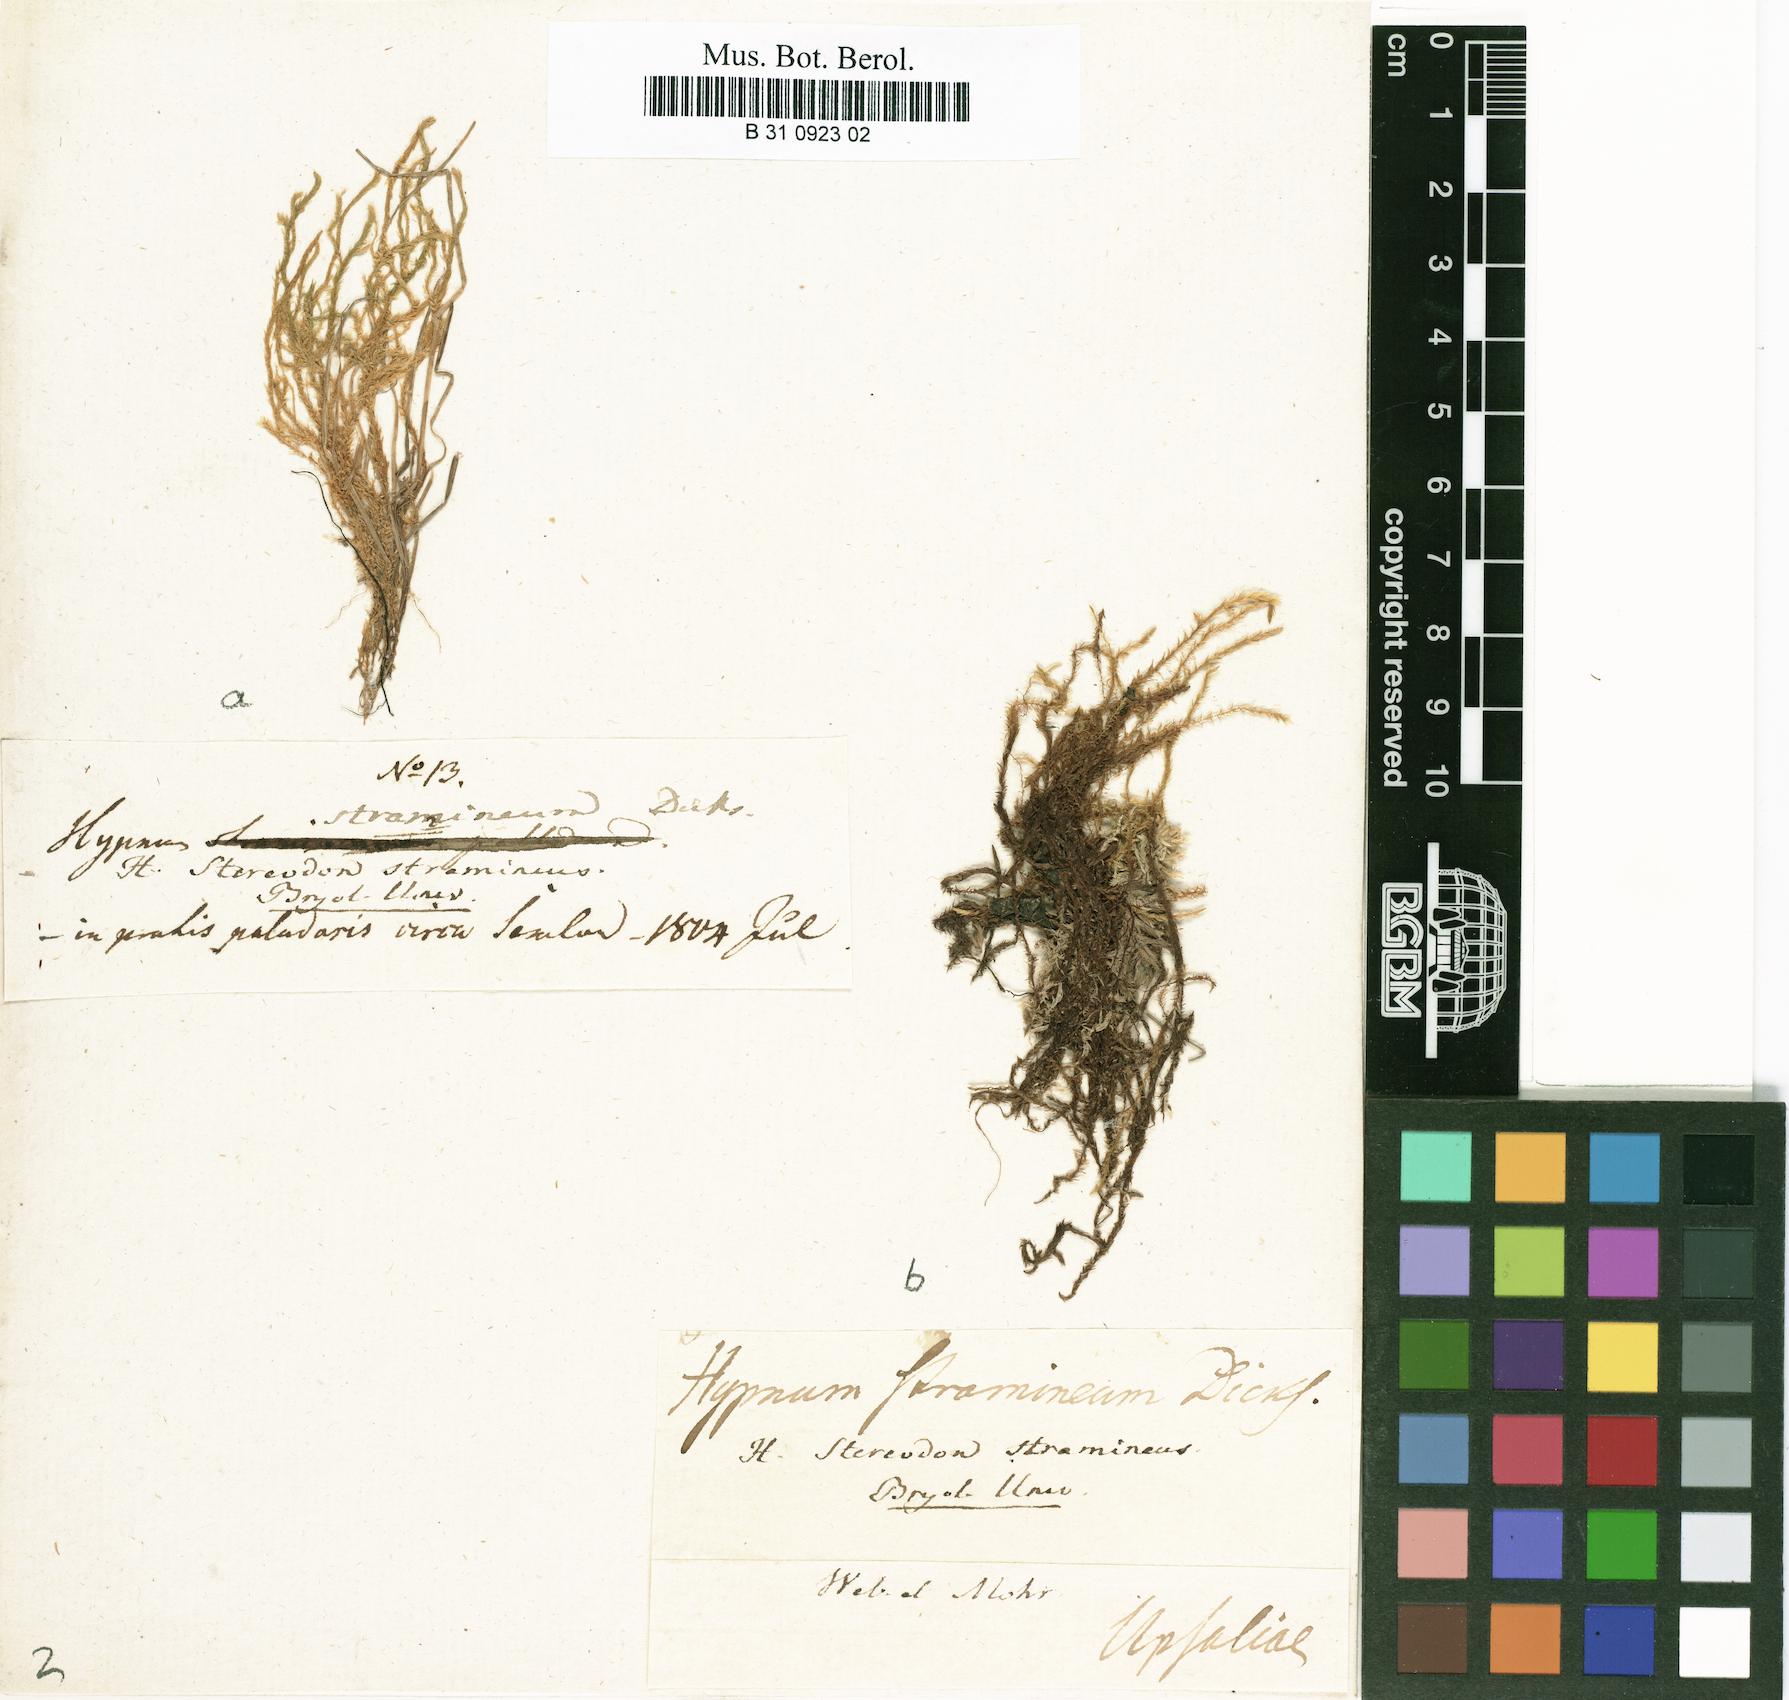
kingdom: Plantae
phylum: Bryophyta
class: Bryopsida
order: Hypnales
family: Calliergonaceae
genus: Straminergon
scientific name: Straminergon stramineum
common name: Straw moss
